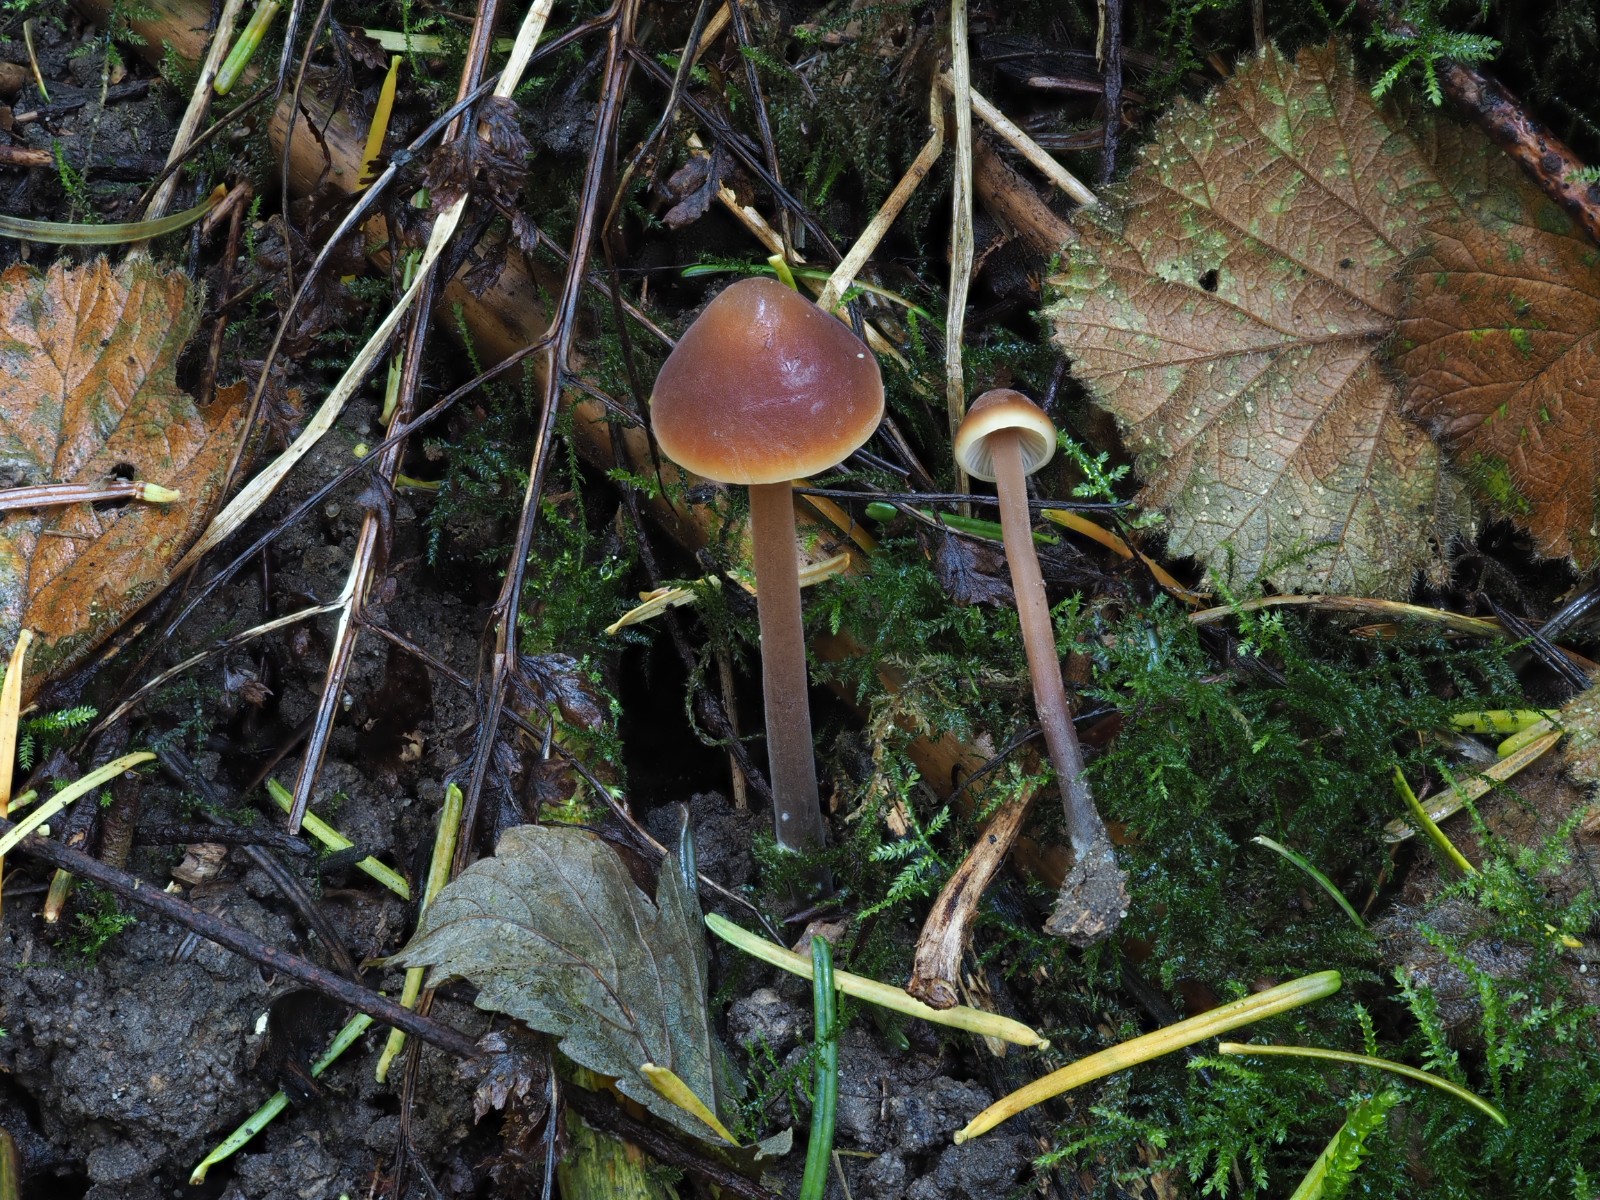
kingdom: Fungi
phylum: Basidiomycota
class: Agaricomycetes
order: Agaricales
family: Macrocystidiaceae
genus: Macrocystidia
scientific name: Macrocystidia cucumis
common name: agurkehat
